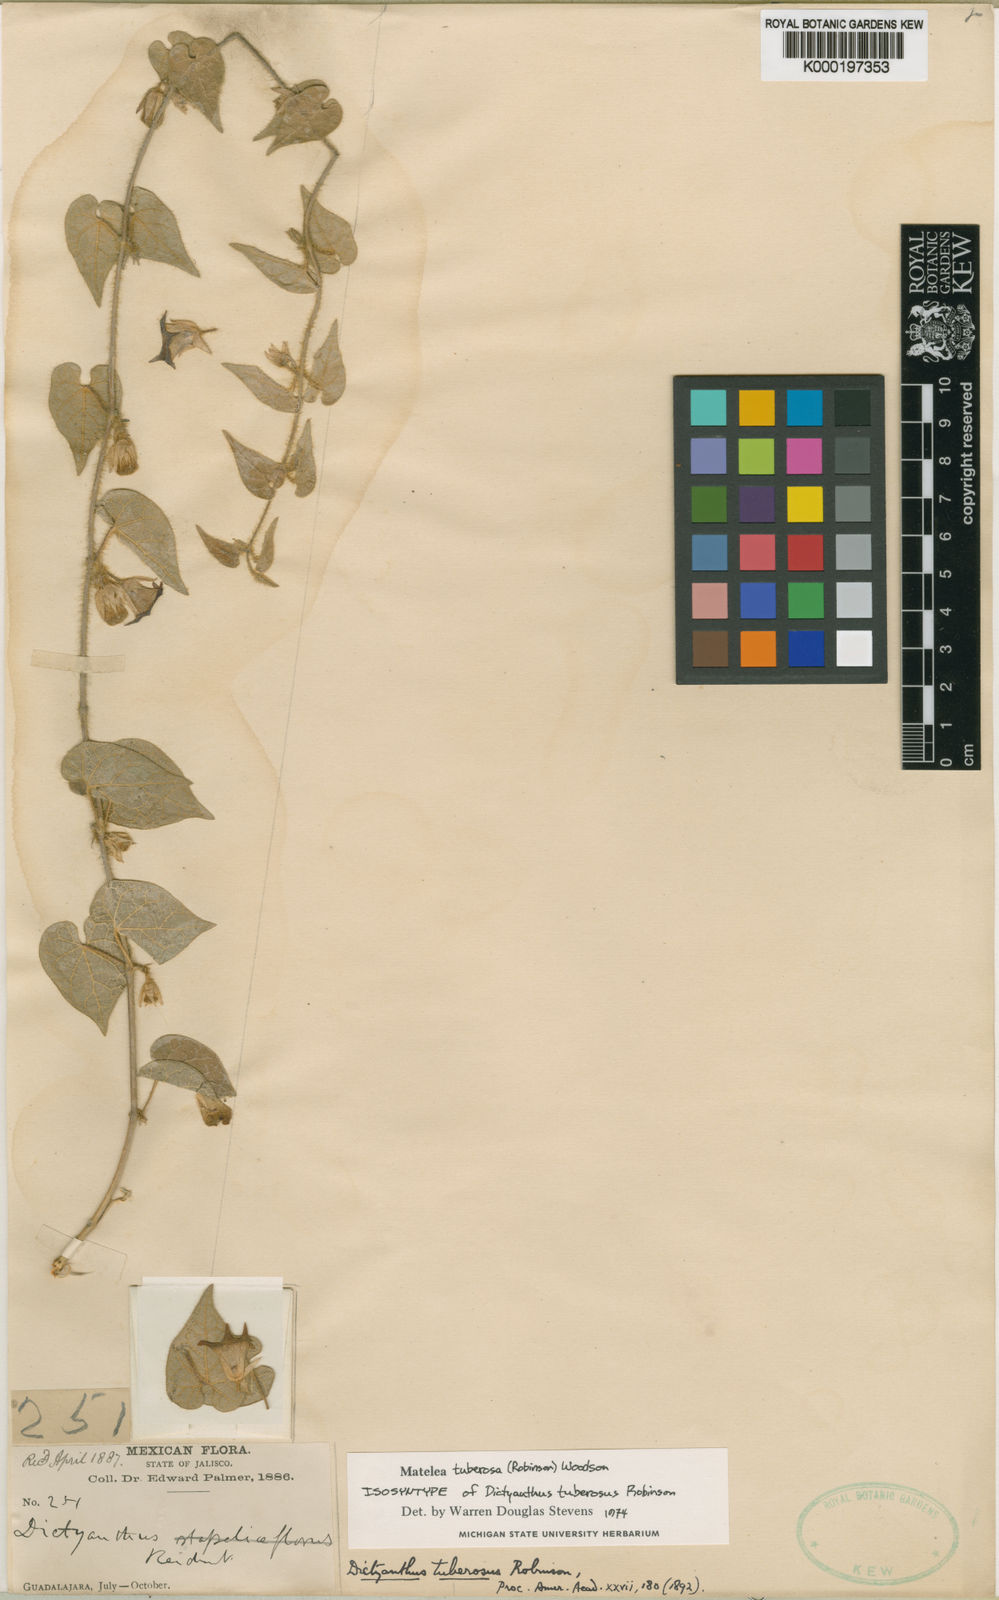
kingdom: Plantae
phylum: Tracheophyta
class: Magnoliopsida
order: Gentianales
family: Apocynaceae
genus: Dictyanthus
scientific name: Dictyanthus tuberosus
